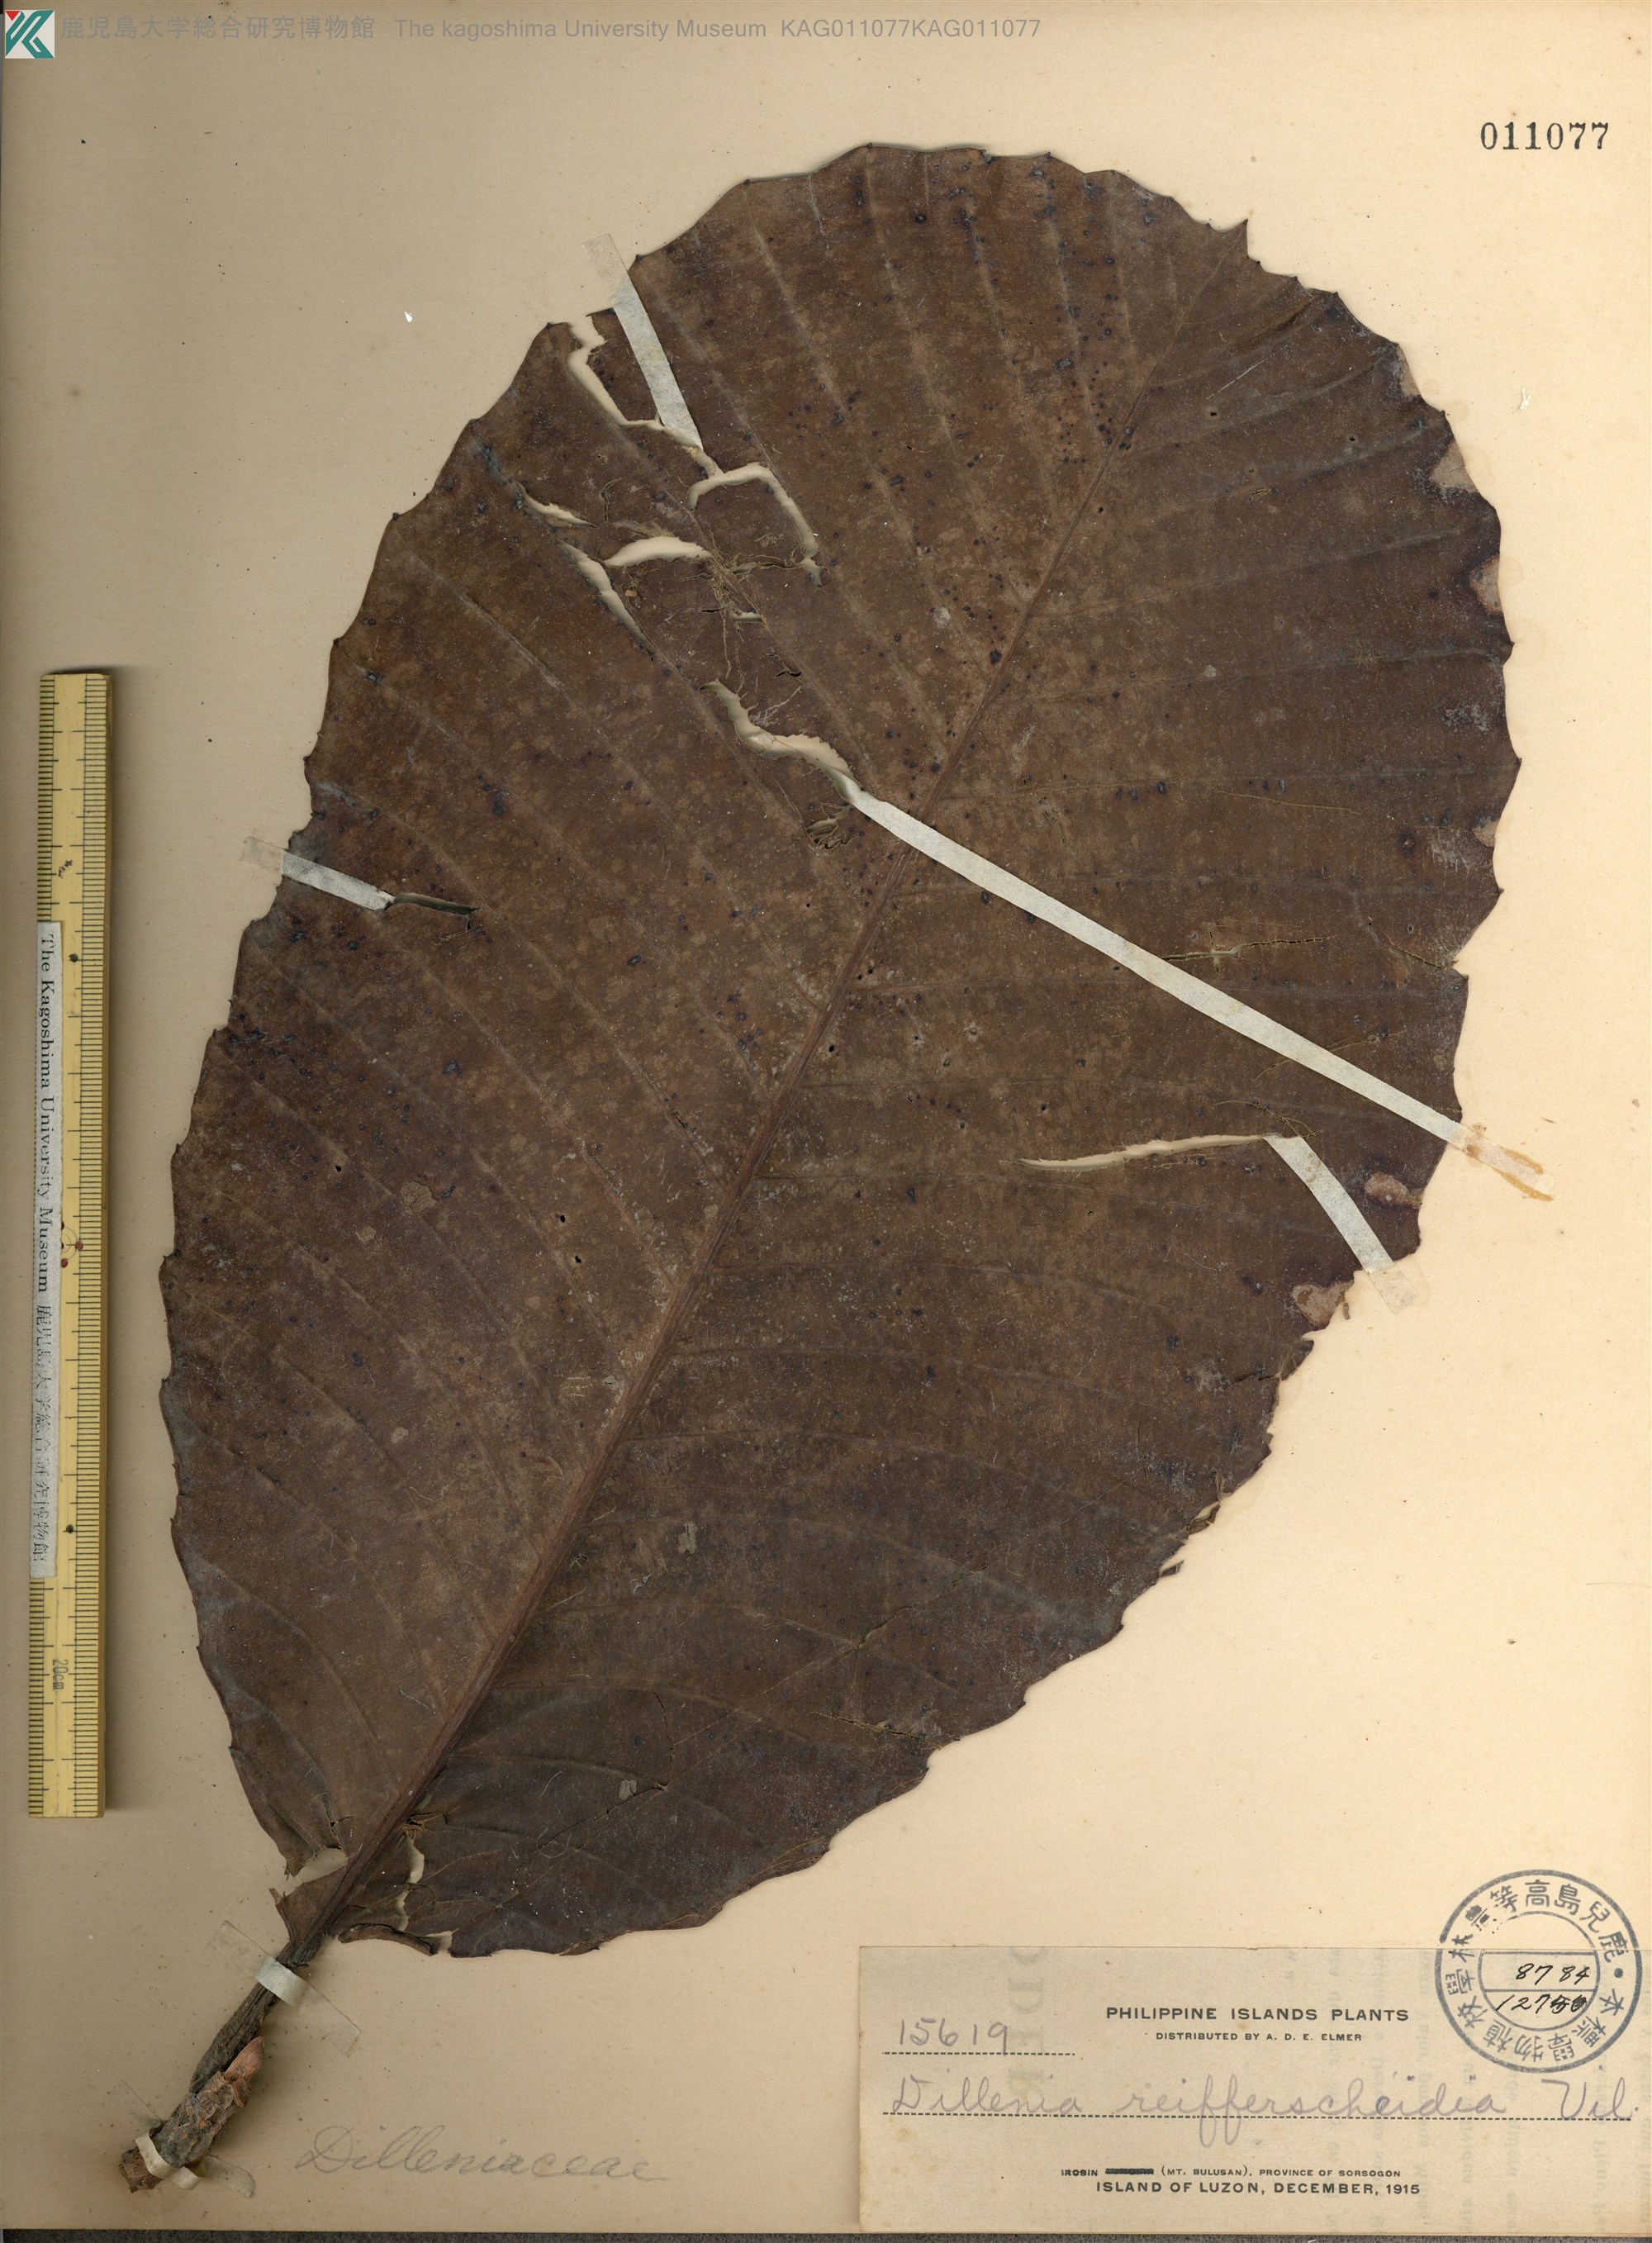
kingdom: Plantae
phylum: Tracheophyta
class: Magnoliopsida
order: Dilleniales
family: Dilleniaceae
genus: Dillenia
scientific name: Dillenia reifferscheidia
